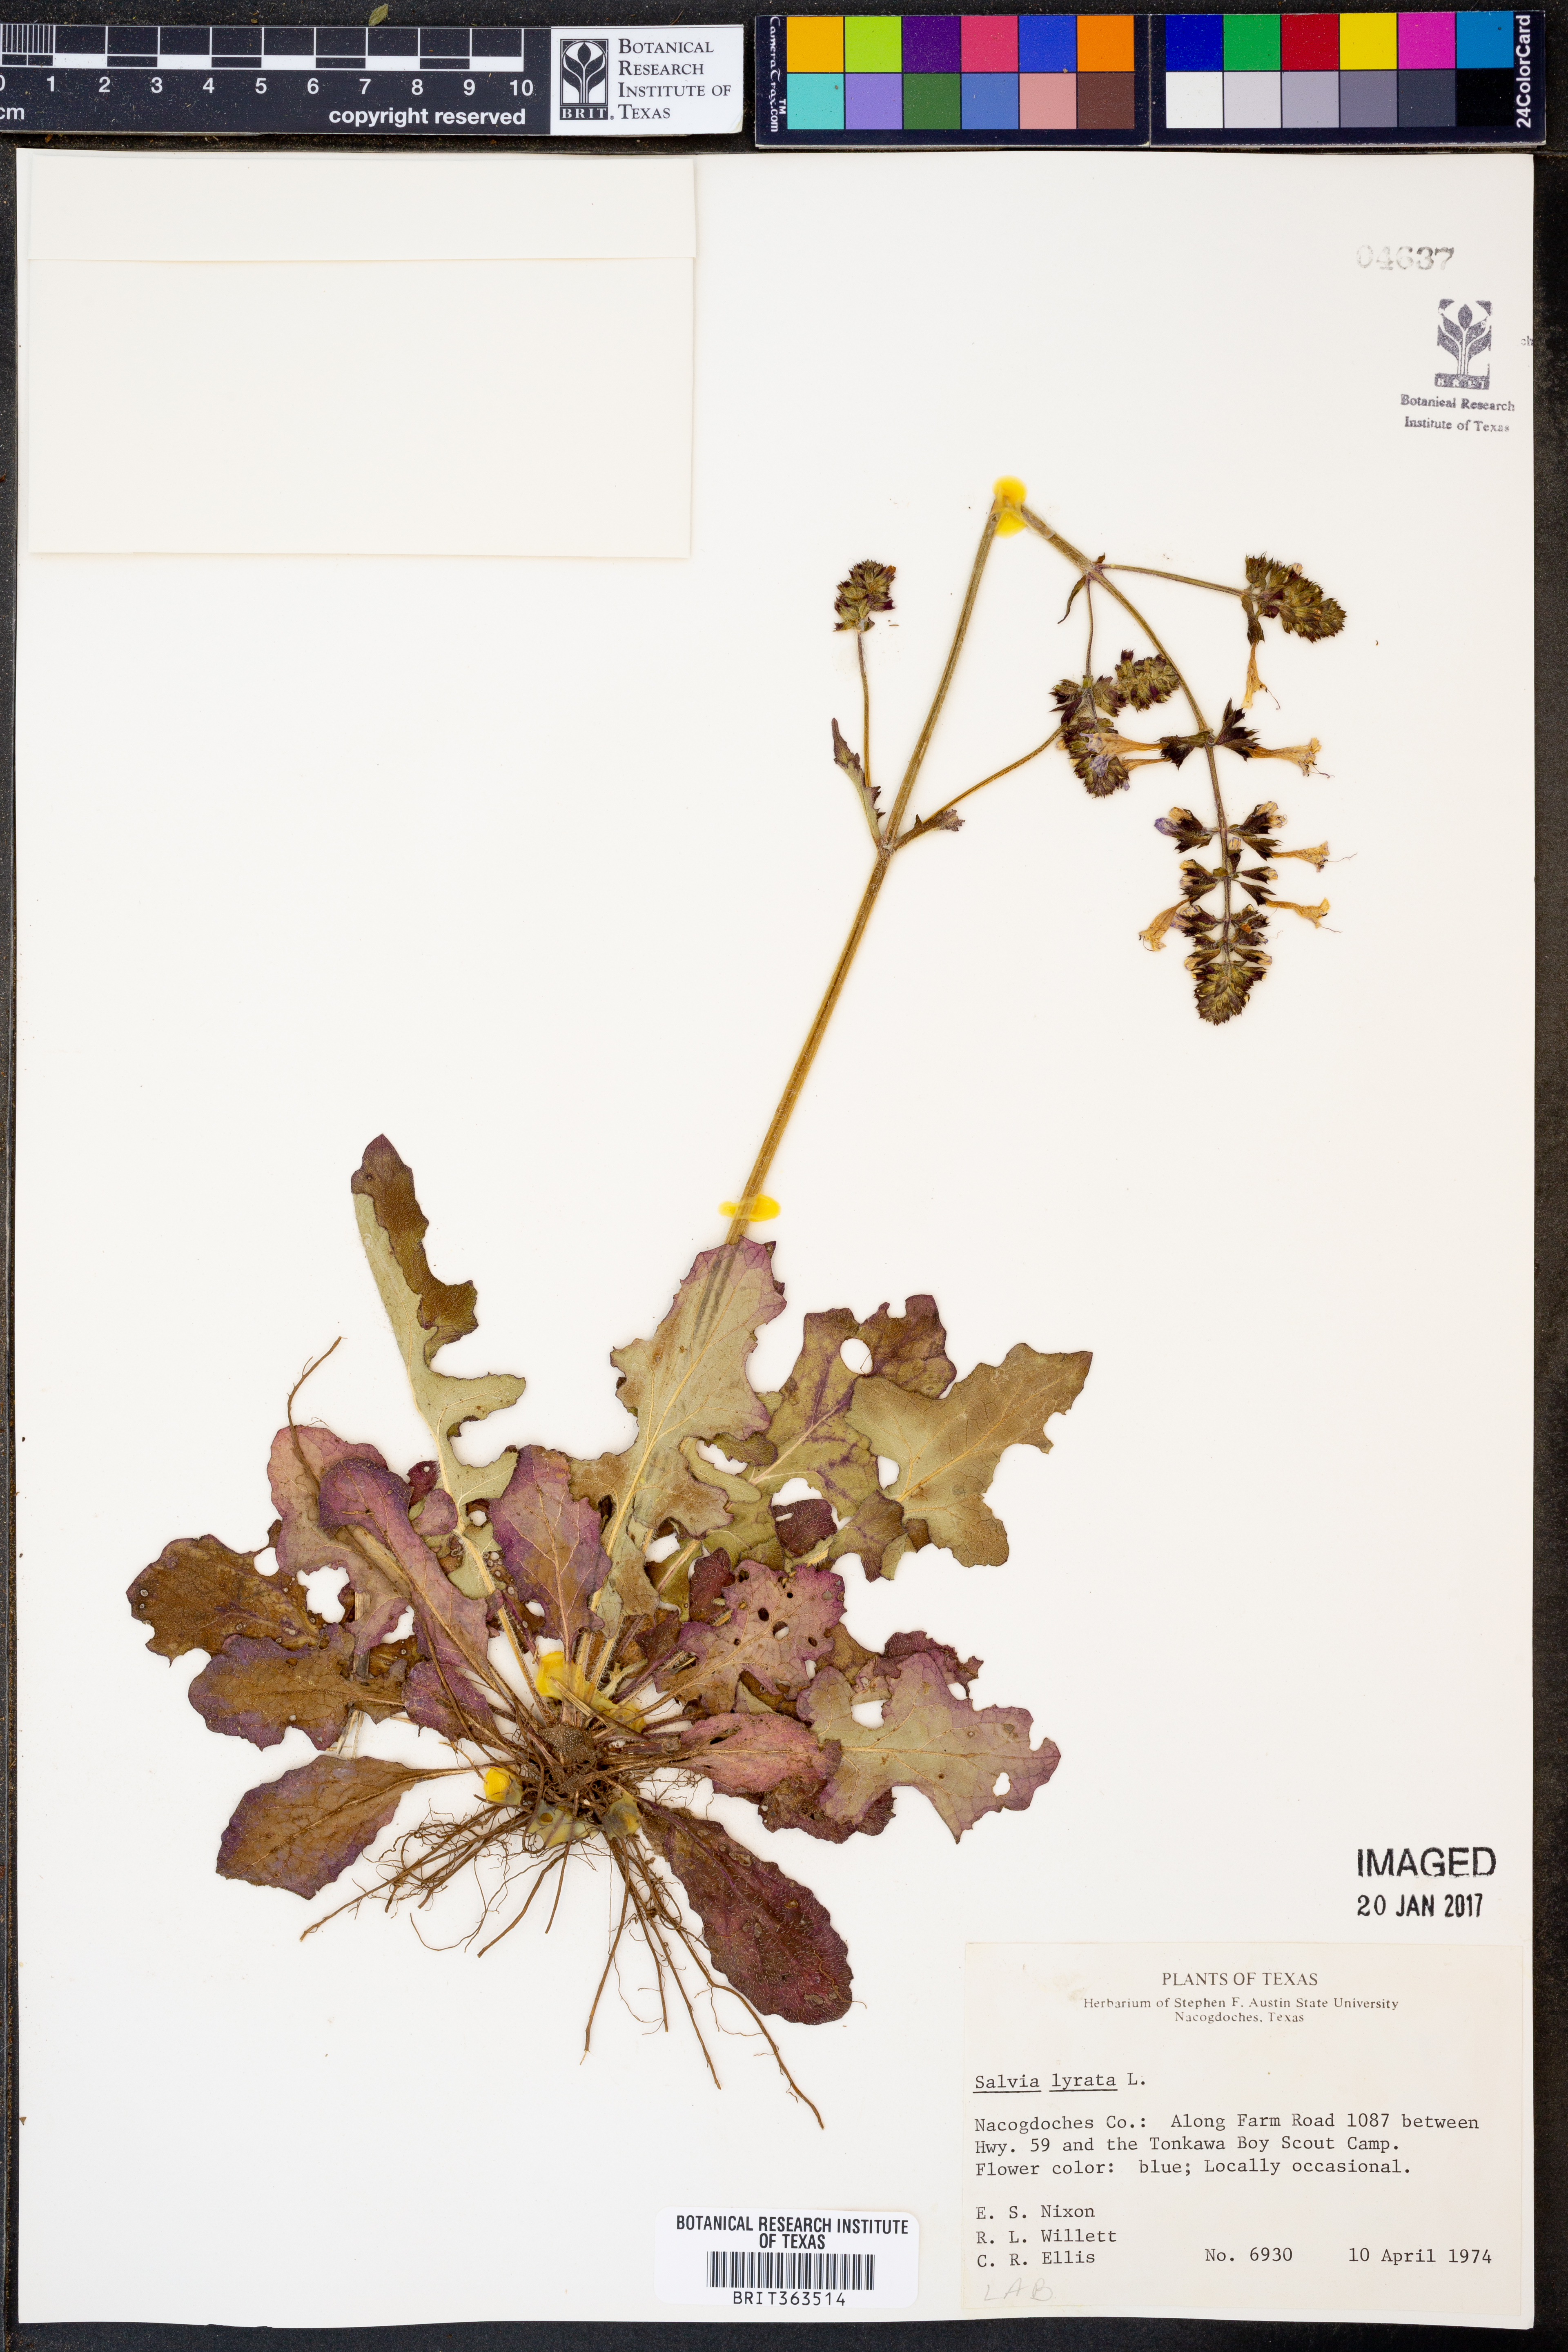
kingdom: Plantae
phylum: Tracheophyta
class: Magnoliopsida
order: Lamiales
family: Lamiaceae
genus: Salvia
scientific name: Salvia lyrata
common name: Cancerweed
